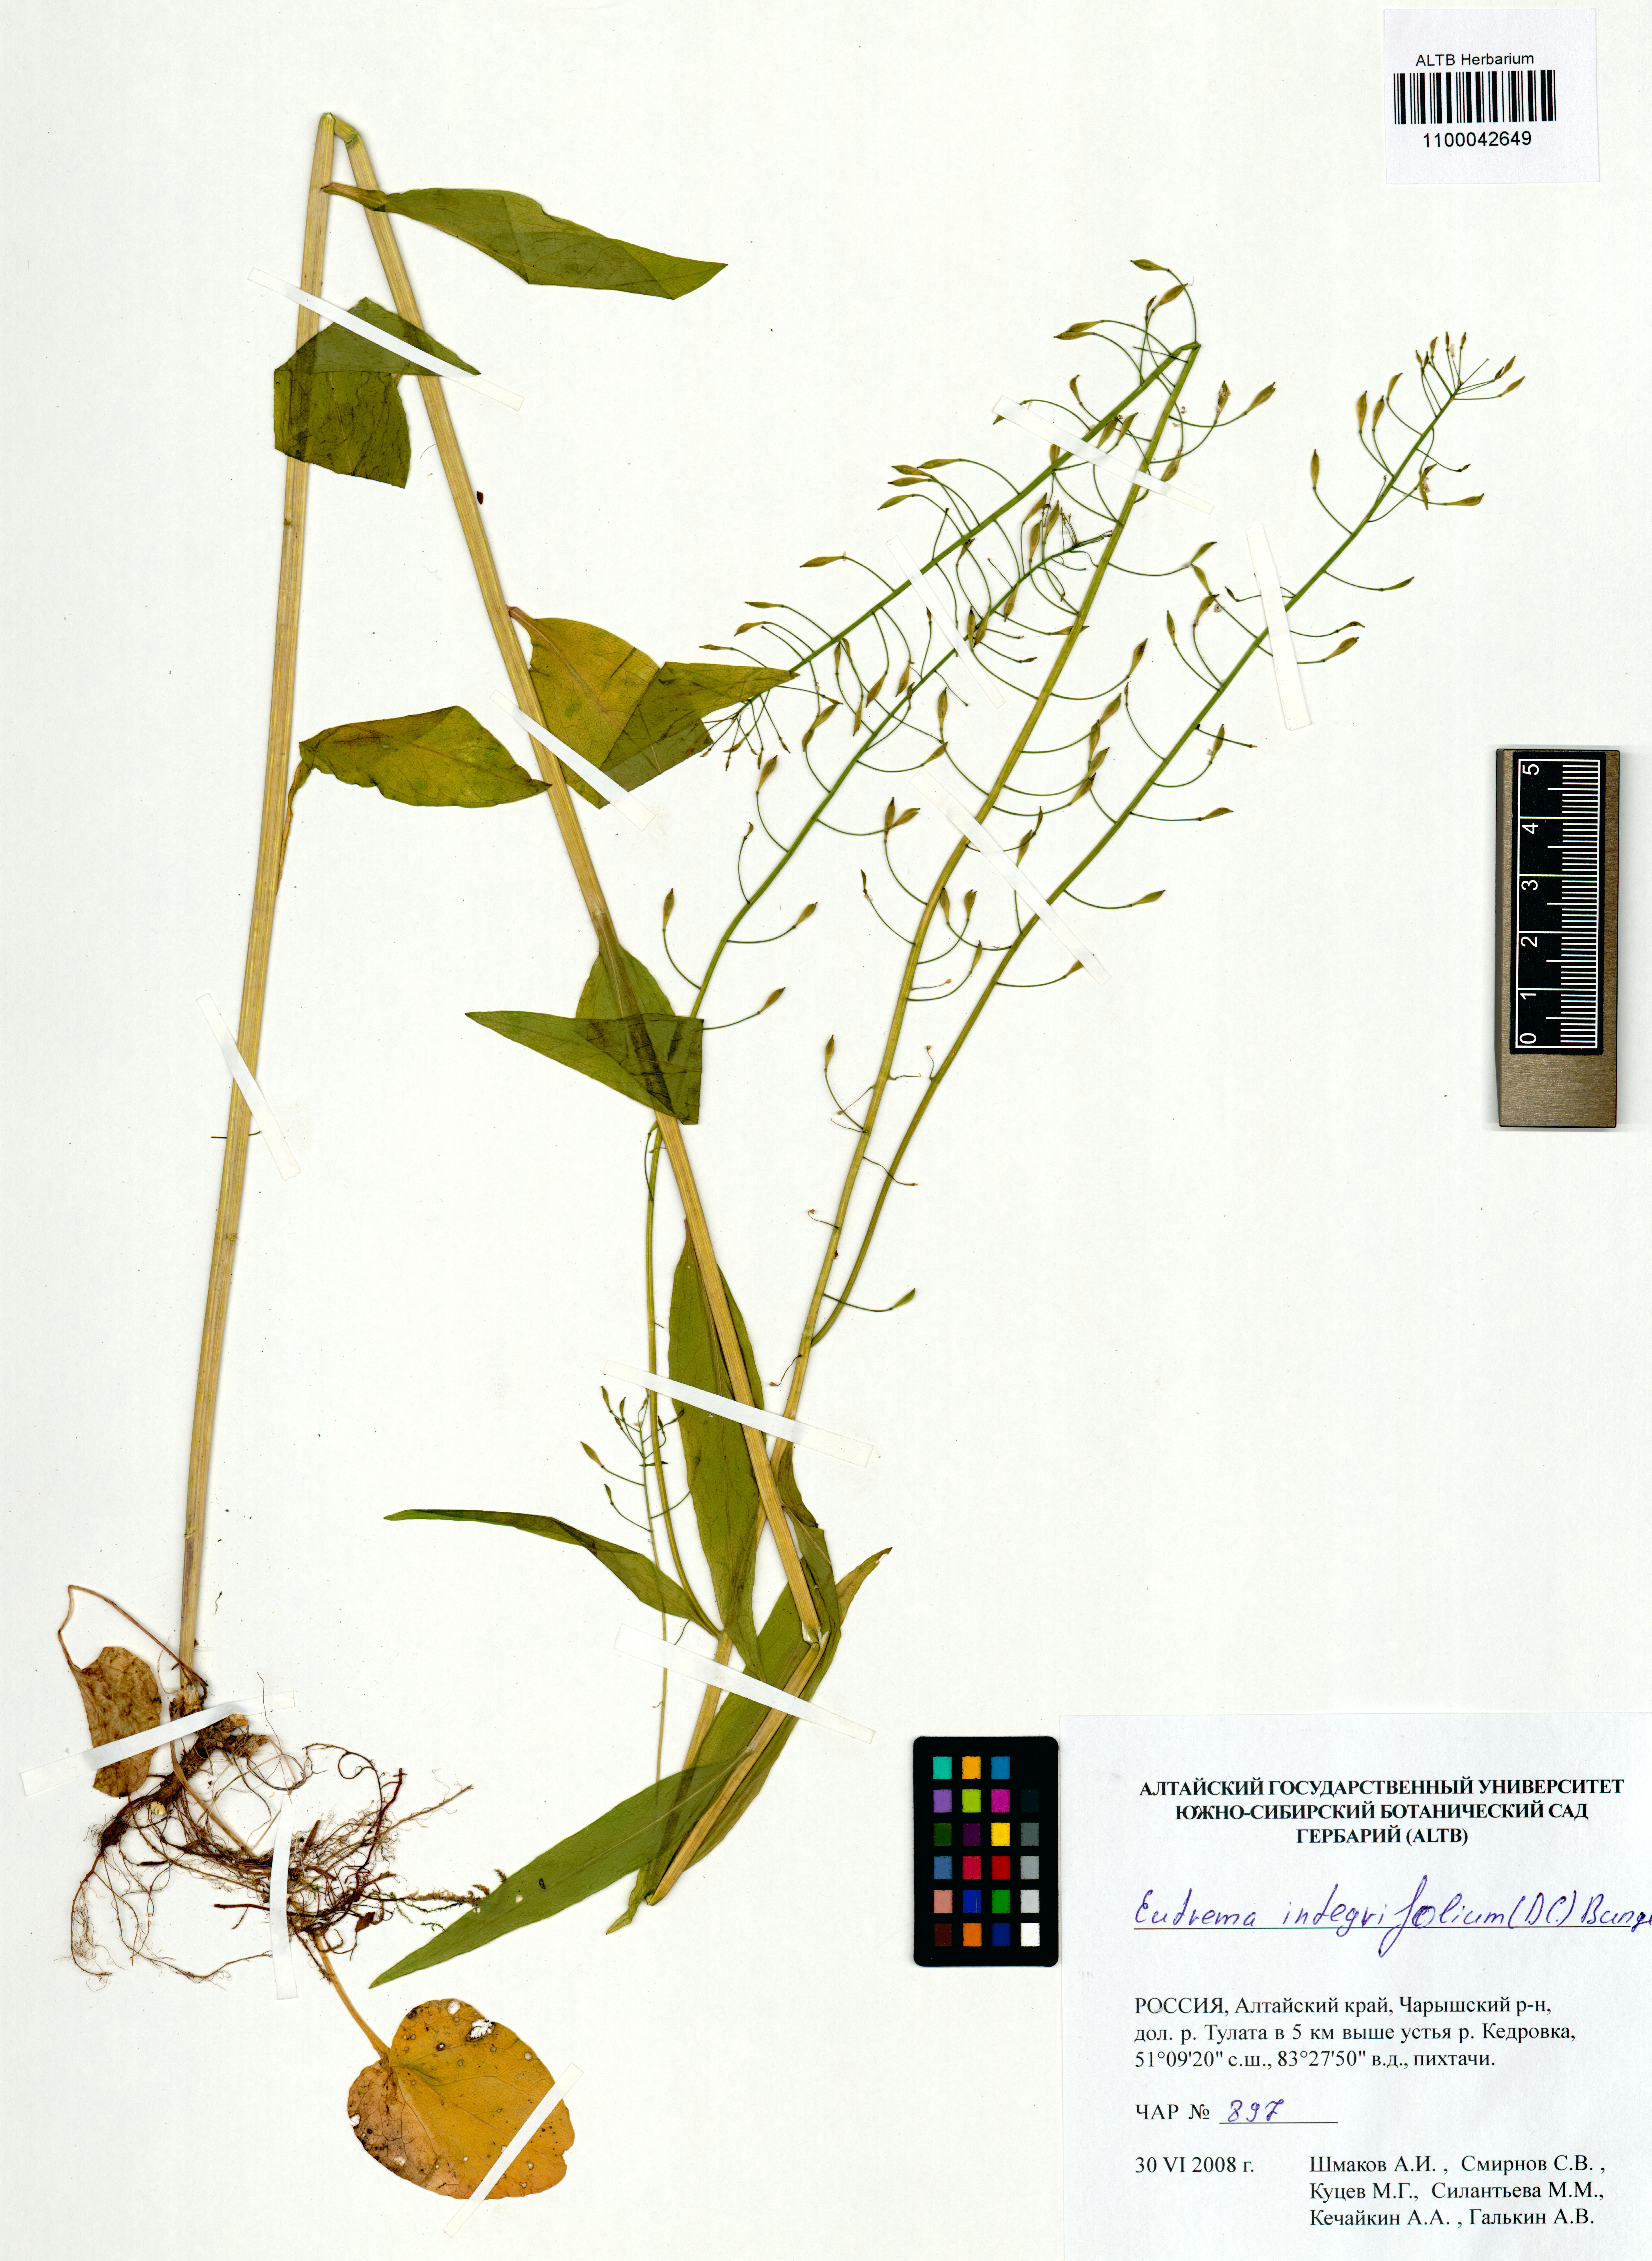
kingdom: Plantae
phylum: Tracheophyta
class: Magnoliopsida
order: Brassicales
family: Brassicaceae
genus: Eutrema
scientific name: Eutrema integrifolium
